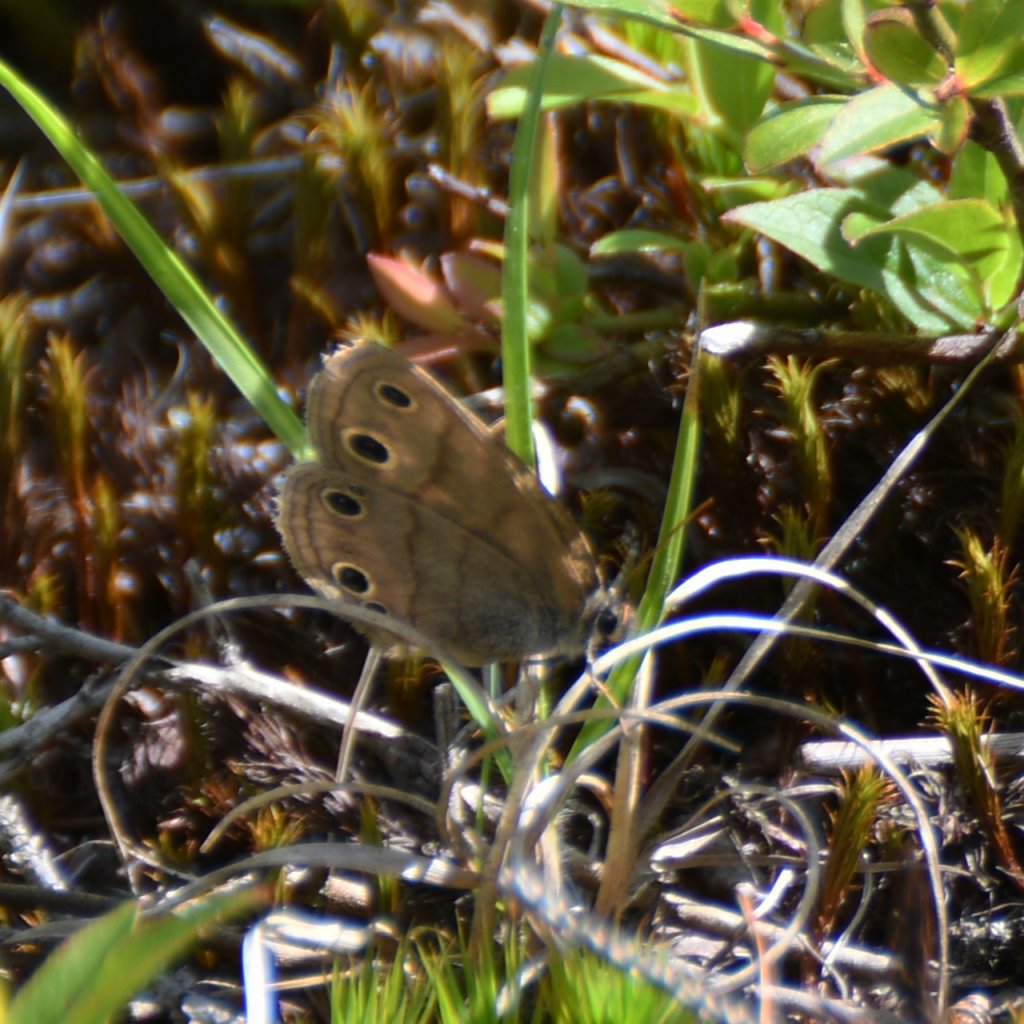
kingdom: Animalia
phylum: Arthropoda
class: Insecta
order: Lepidoptera
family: Nymphalidae
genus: Euptychia
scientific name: Euptychia cymela
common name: Little Wood Satyr
